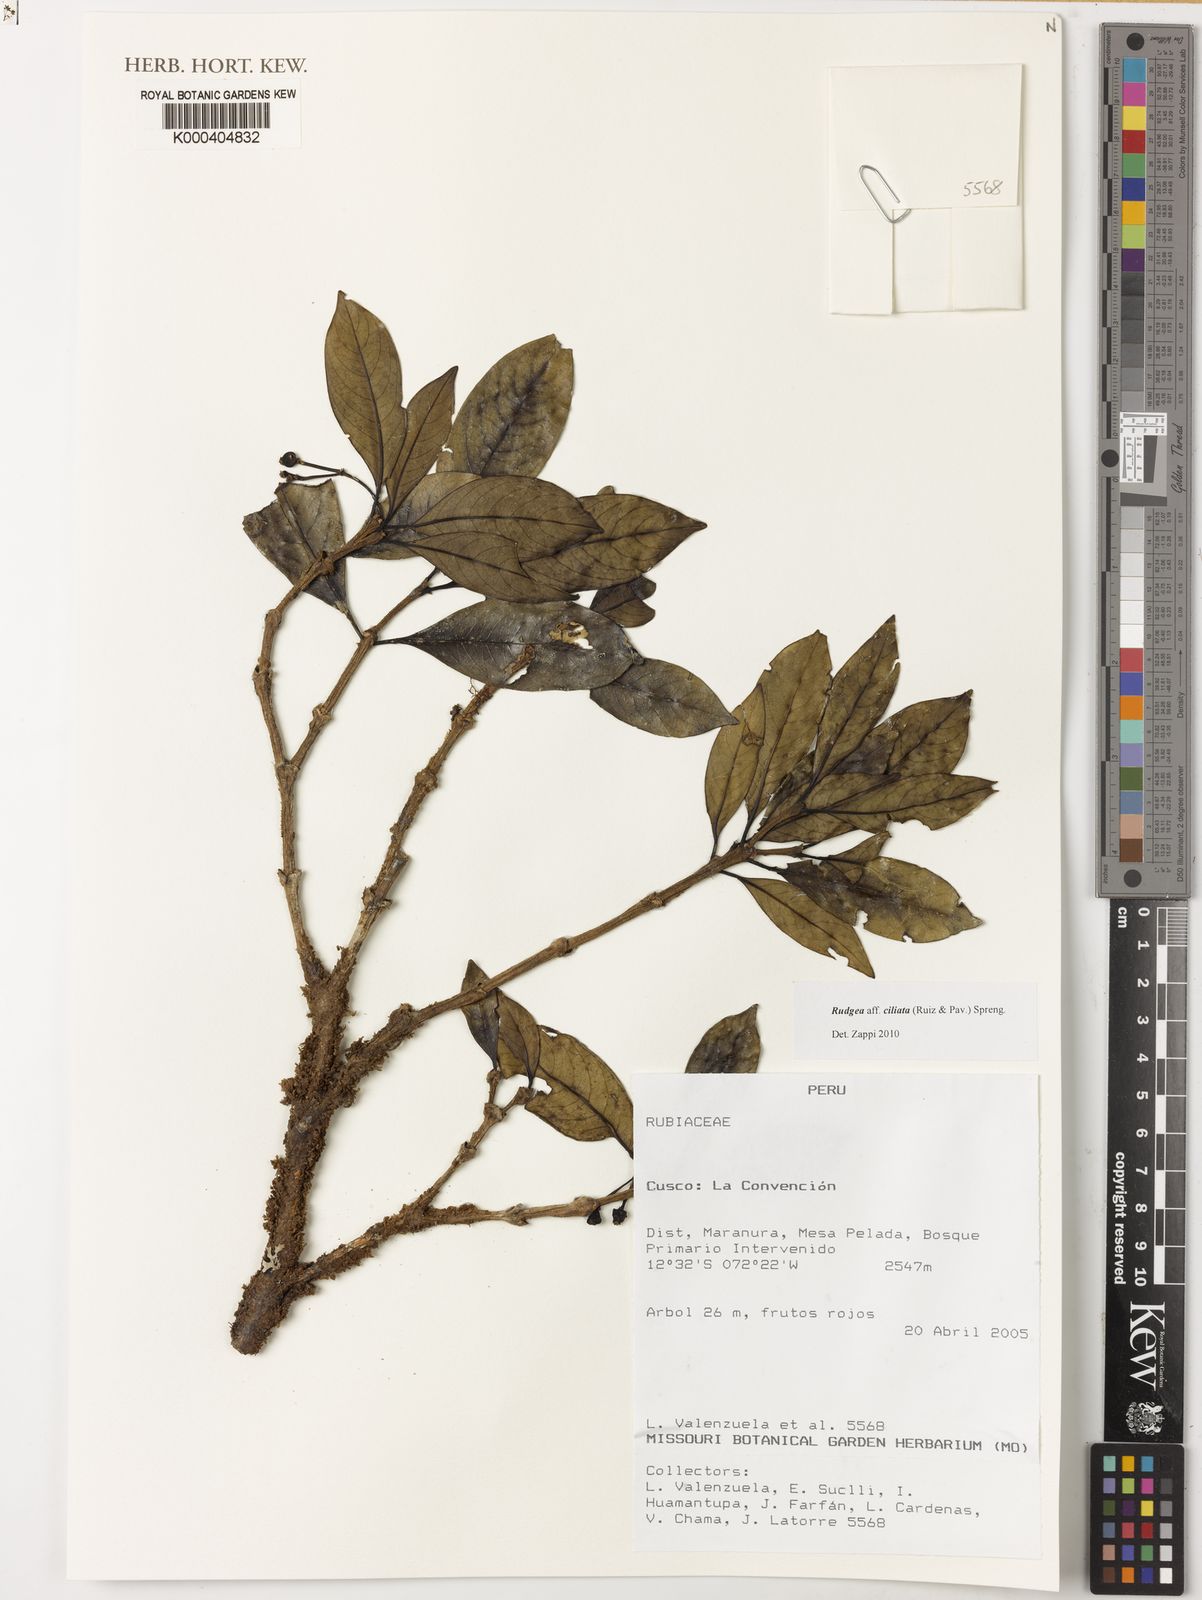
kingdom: Plantae
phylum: Tracheophyta
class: Magnoliopsida
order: Gentianales
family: Rubiaceae
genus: Rudgea
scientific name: Rudgea ciliata
